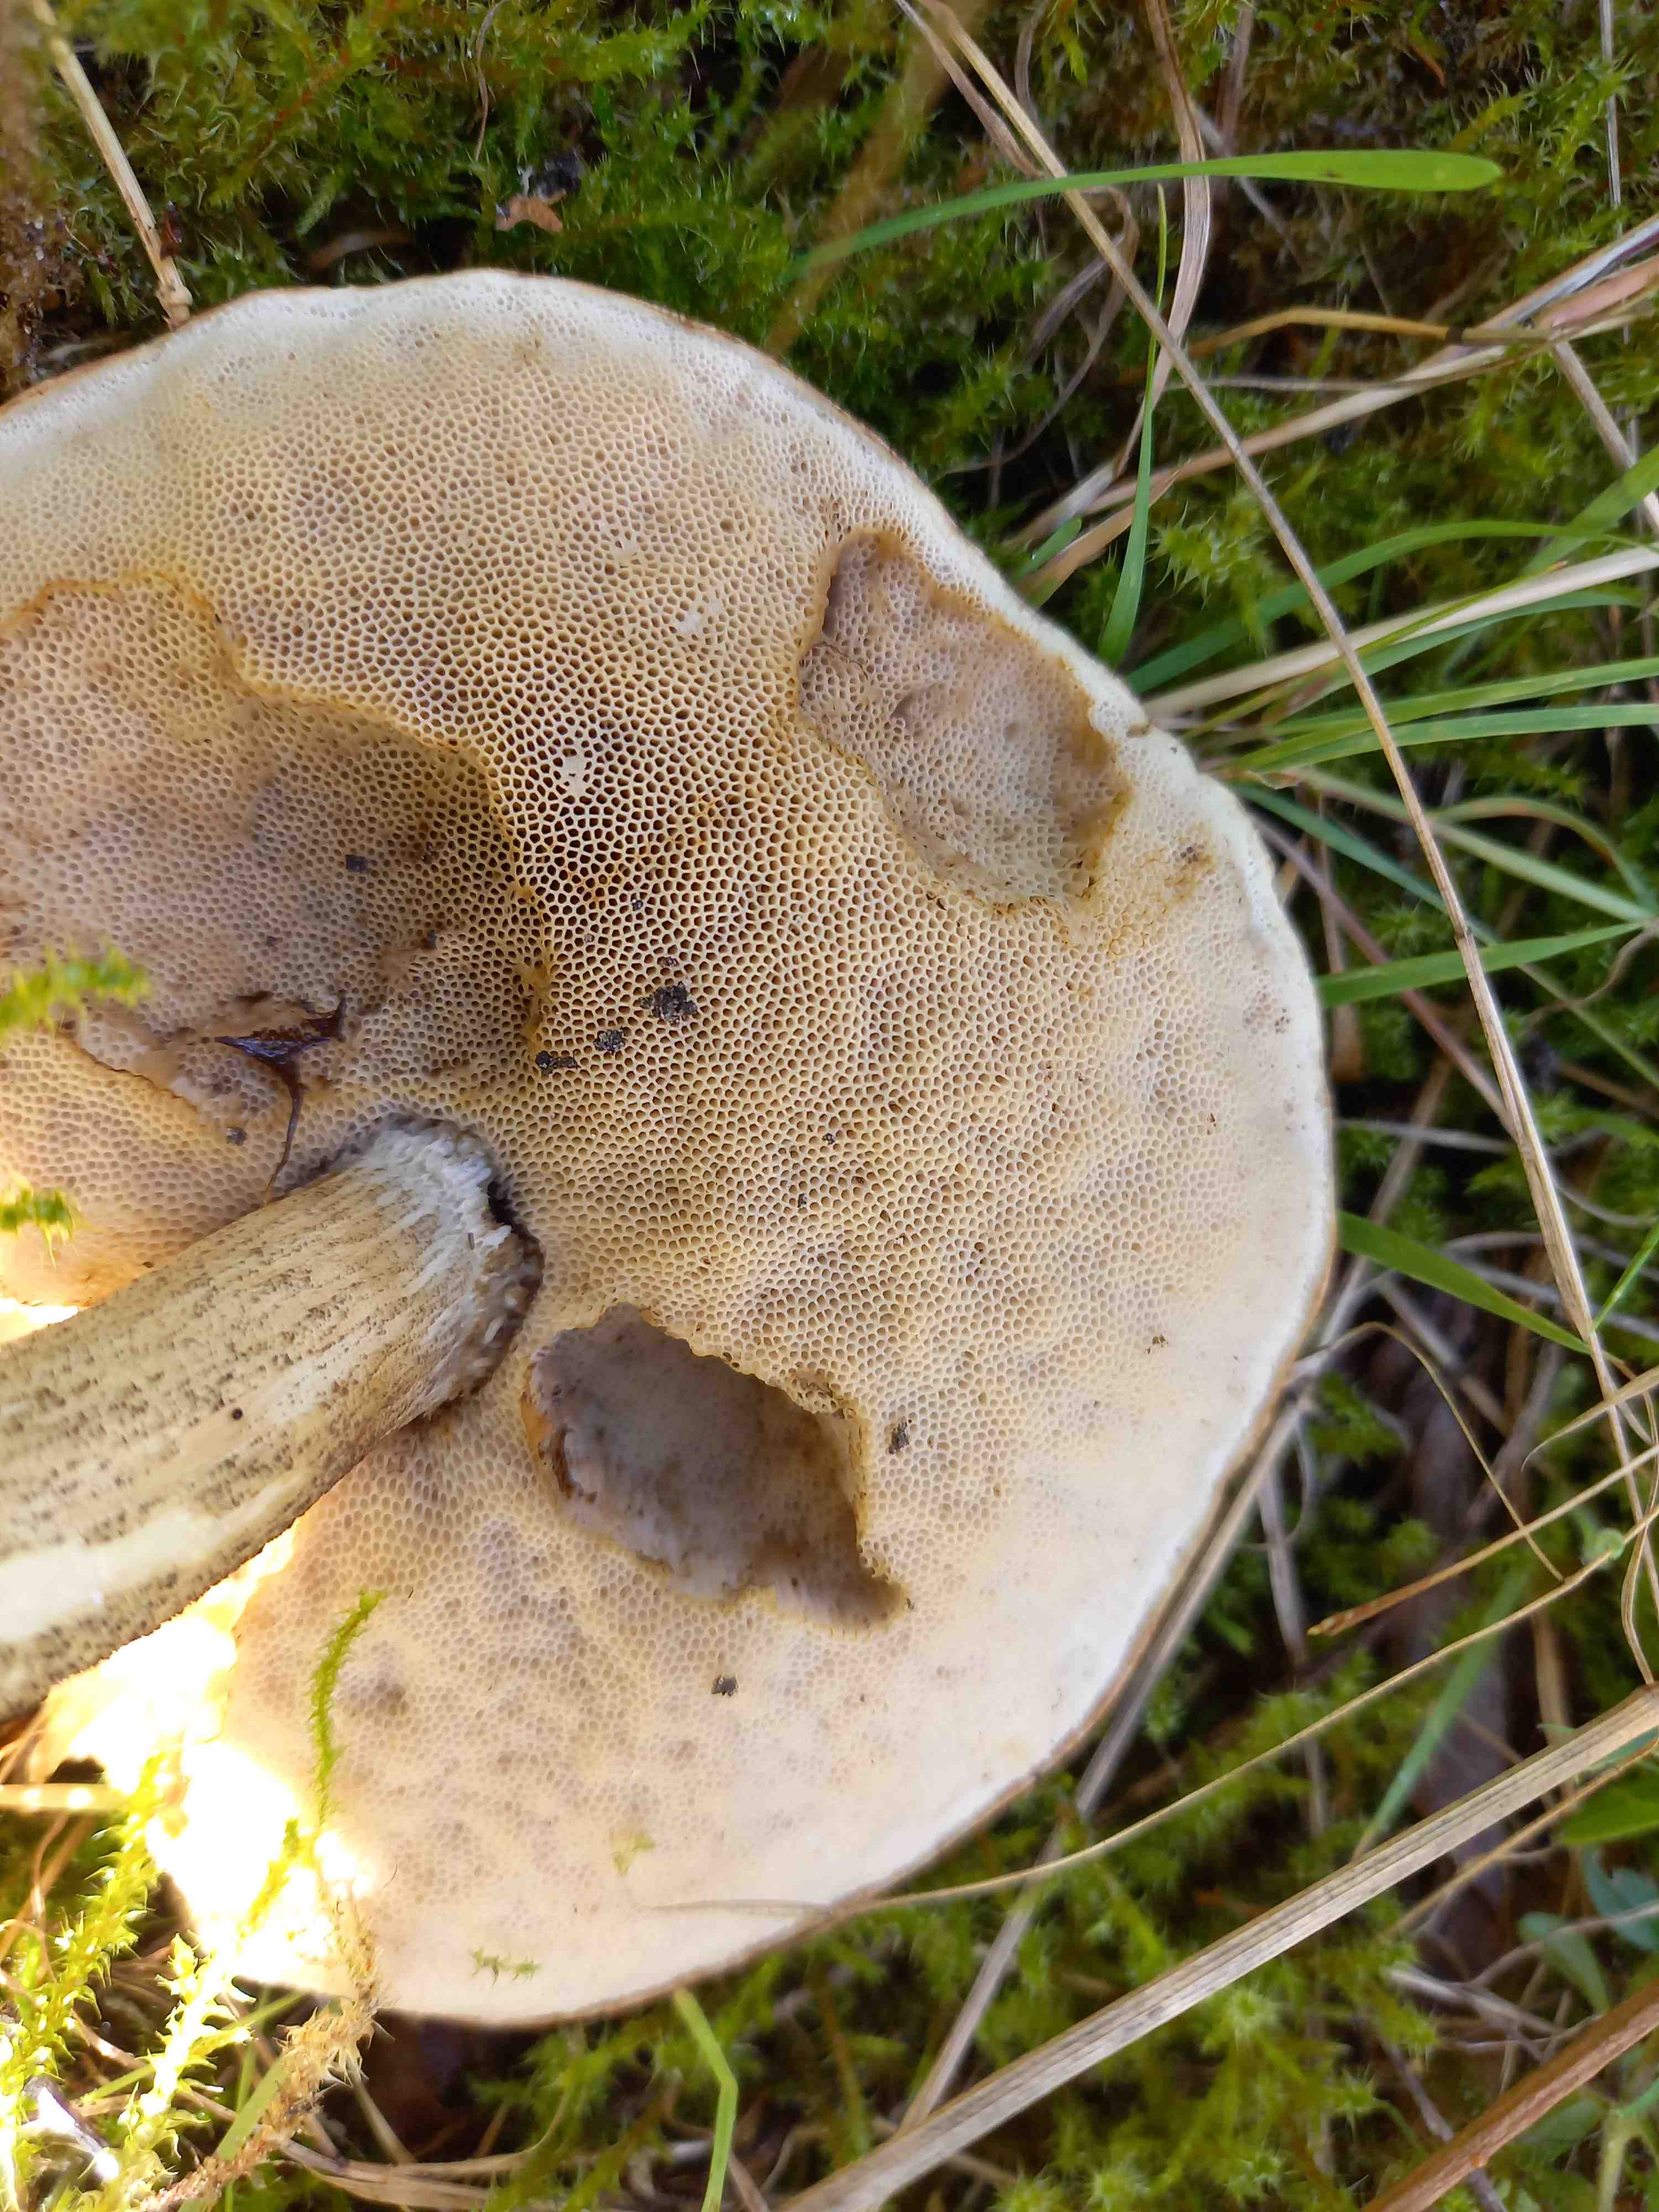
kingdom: Fungi
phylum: Basidiomycota
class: Agaricomycetes
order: Boletales
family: Boletaceae
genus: Leccinum
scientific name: Leccinum scabrum
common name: brun skælrørhat
